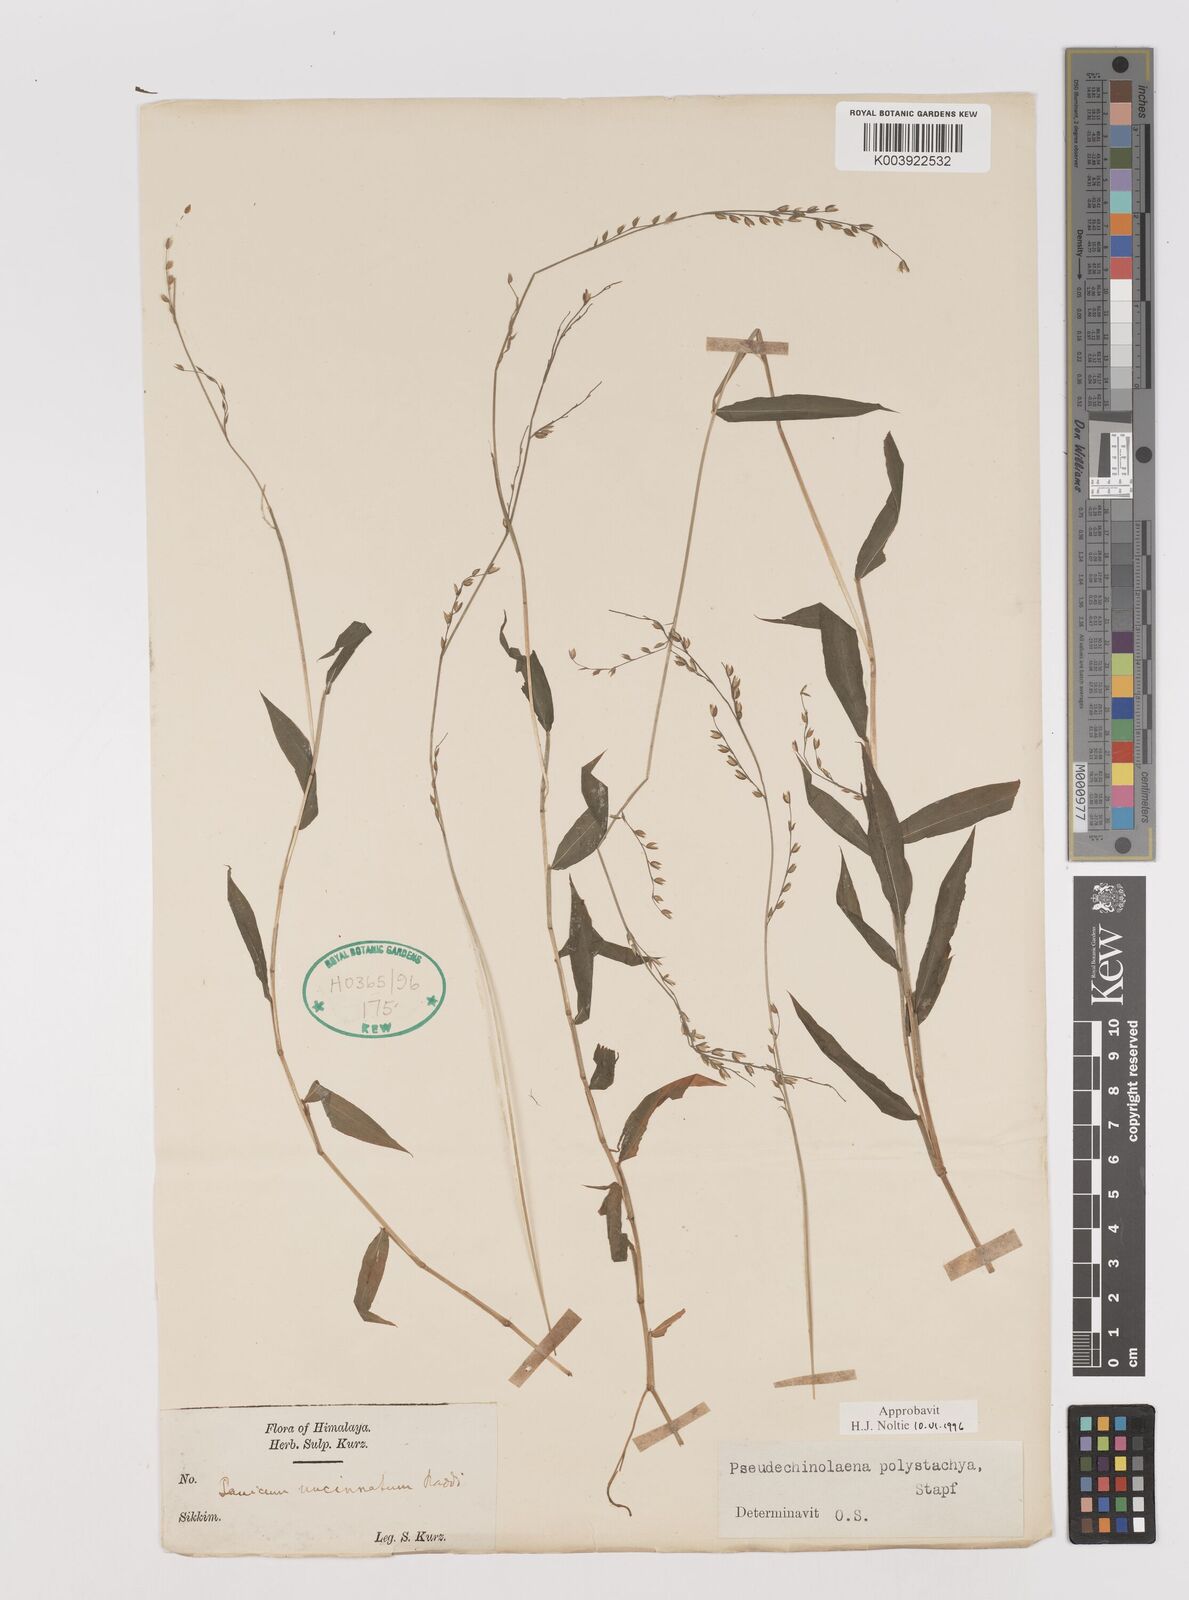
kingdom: Plantae
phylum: Tracheophyta
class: Liliopsida
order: Poales
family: Poaceae
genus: Pseudechinolaena
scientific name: Pseudechinolaena polystachya
